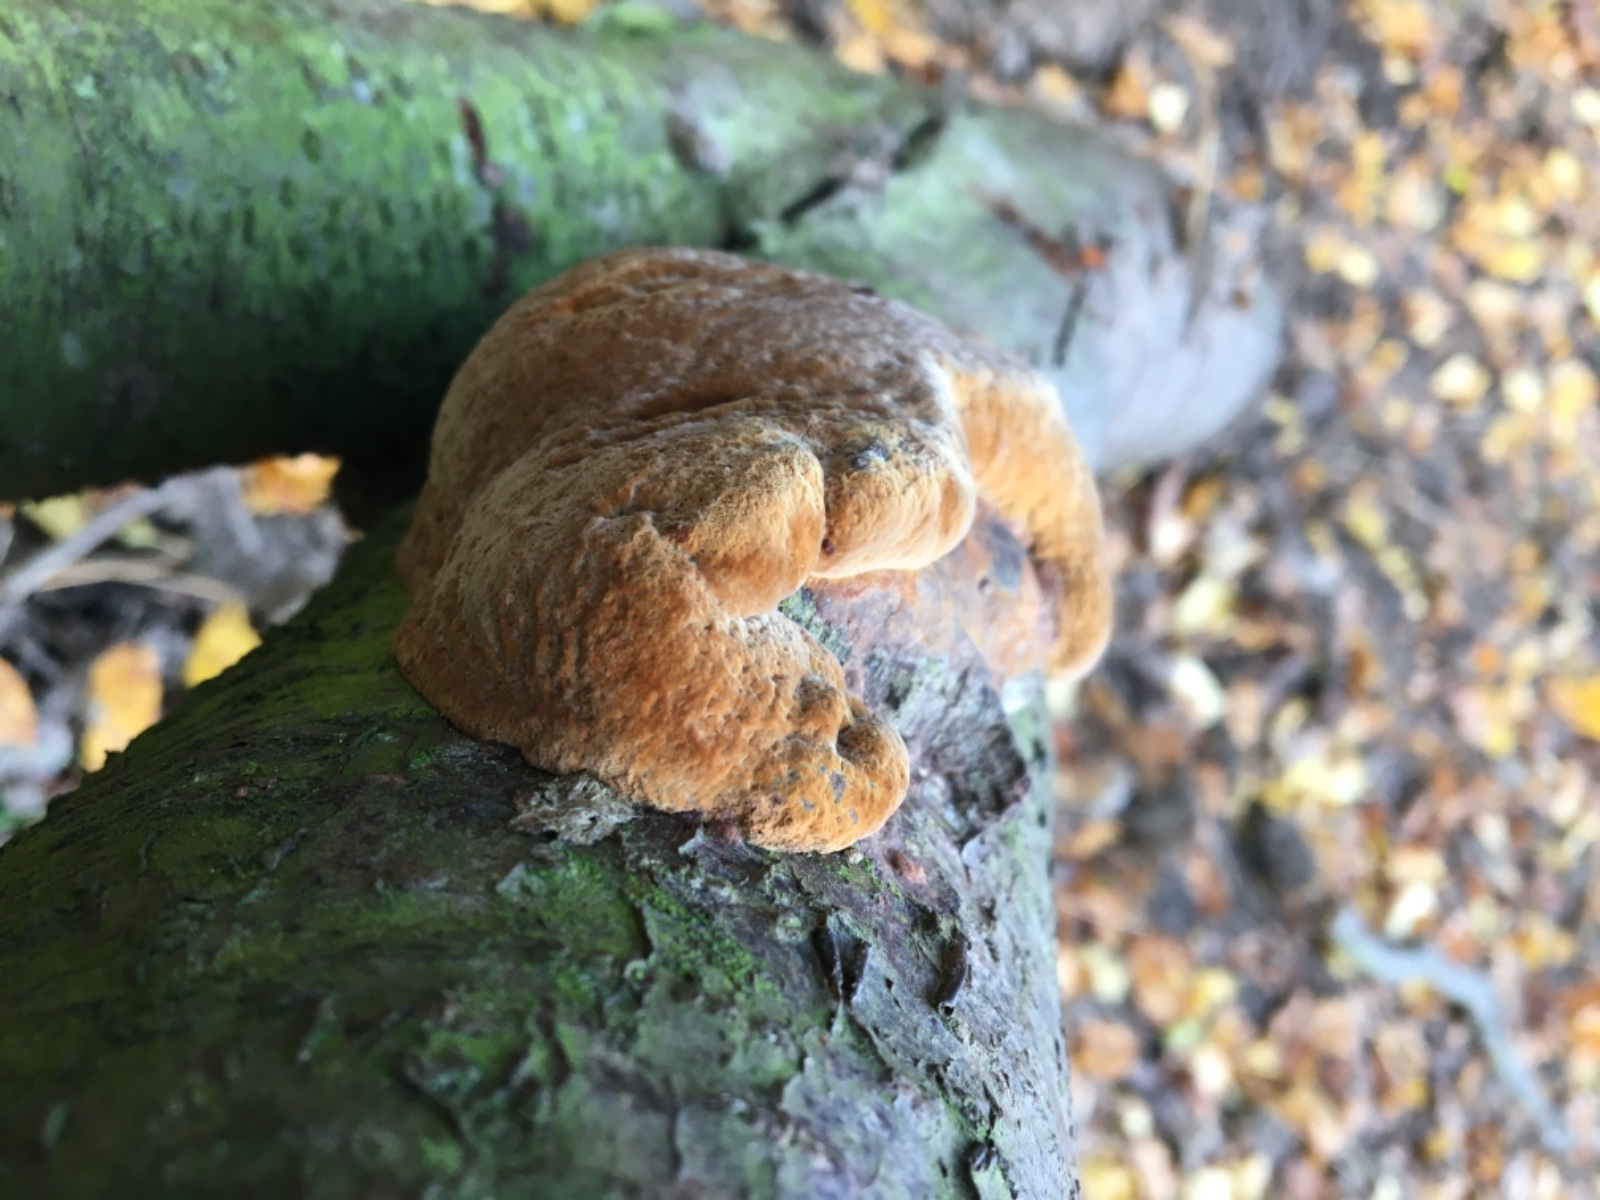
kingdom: Fungi
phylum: Basidiomycota
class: Agaricomycetes
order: Hymenochaetales
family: Hymenochaetaceae
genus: Phellinus
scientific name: Phellinus pomaceus
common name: blomme-ildporesvamp
